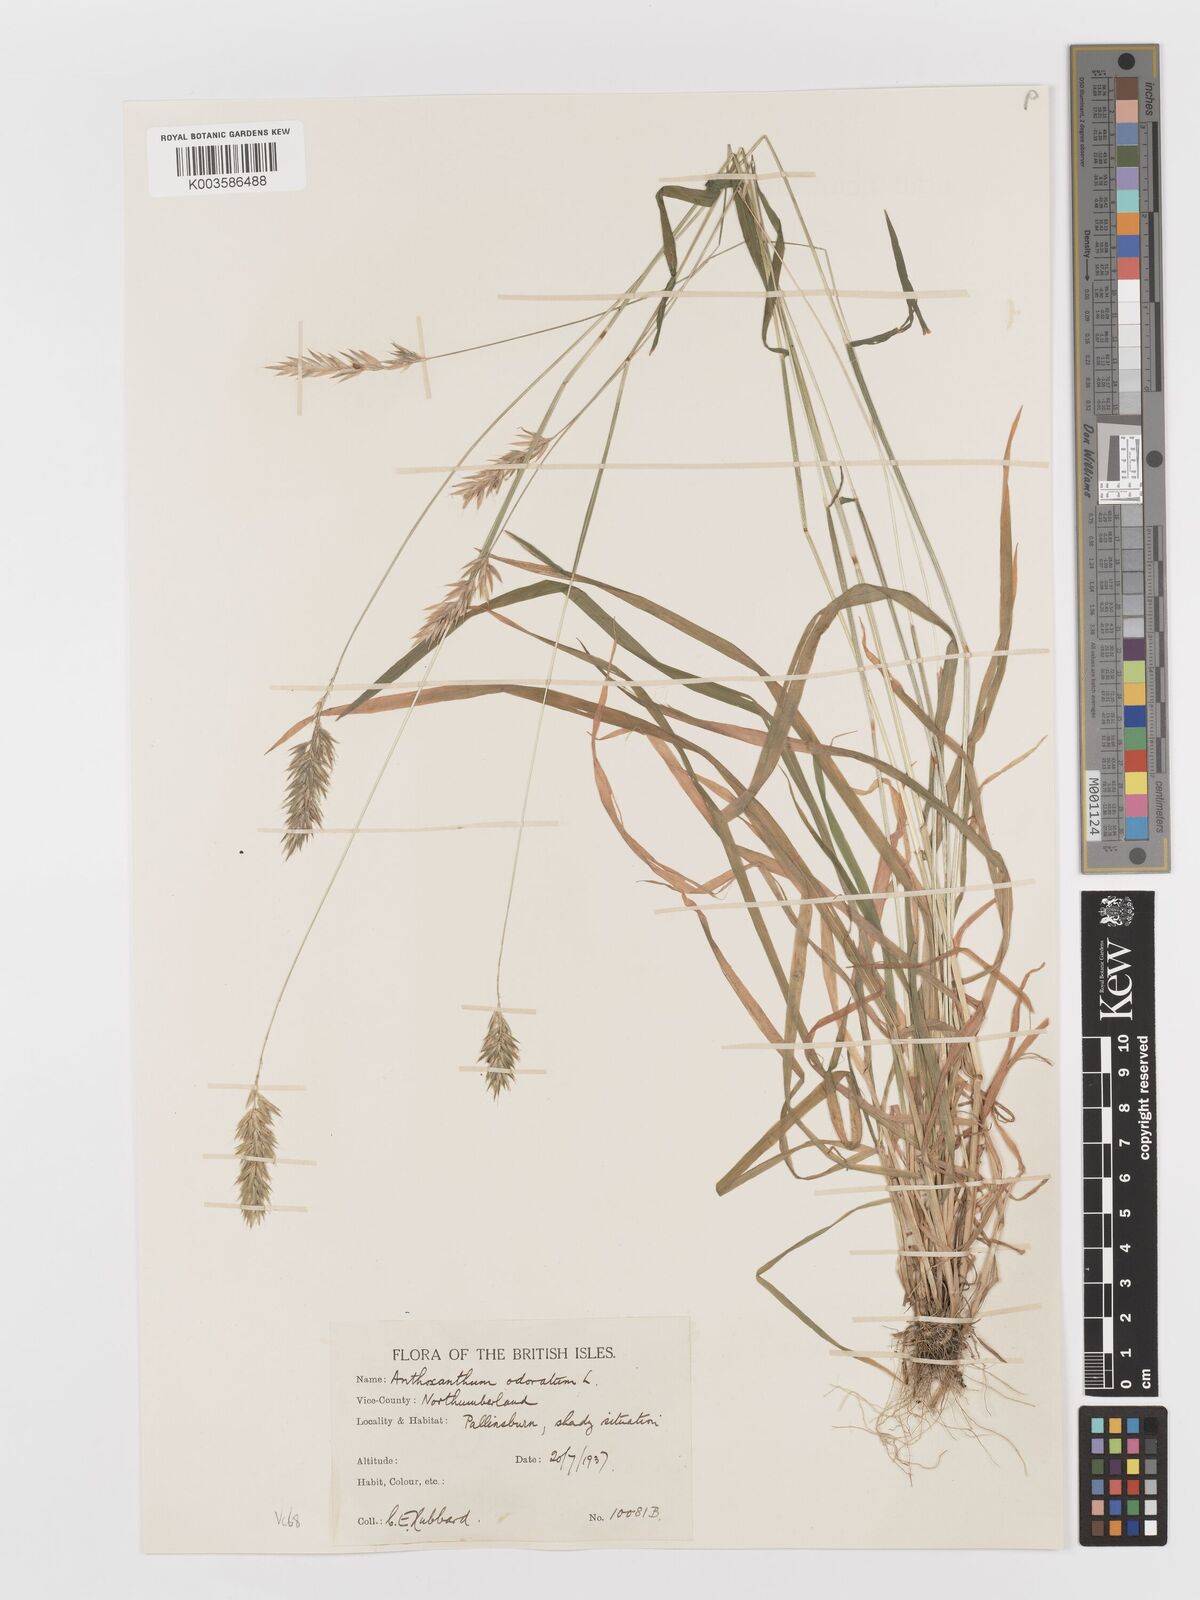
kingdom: Plantae
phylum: Tracheophyta
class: Liliopsida
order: Poales
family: Poaceae
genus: Anthoxanthum
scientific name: Anthoxanthum odoratum
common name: Sweet vernalgrass
